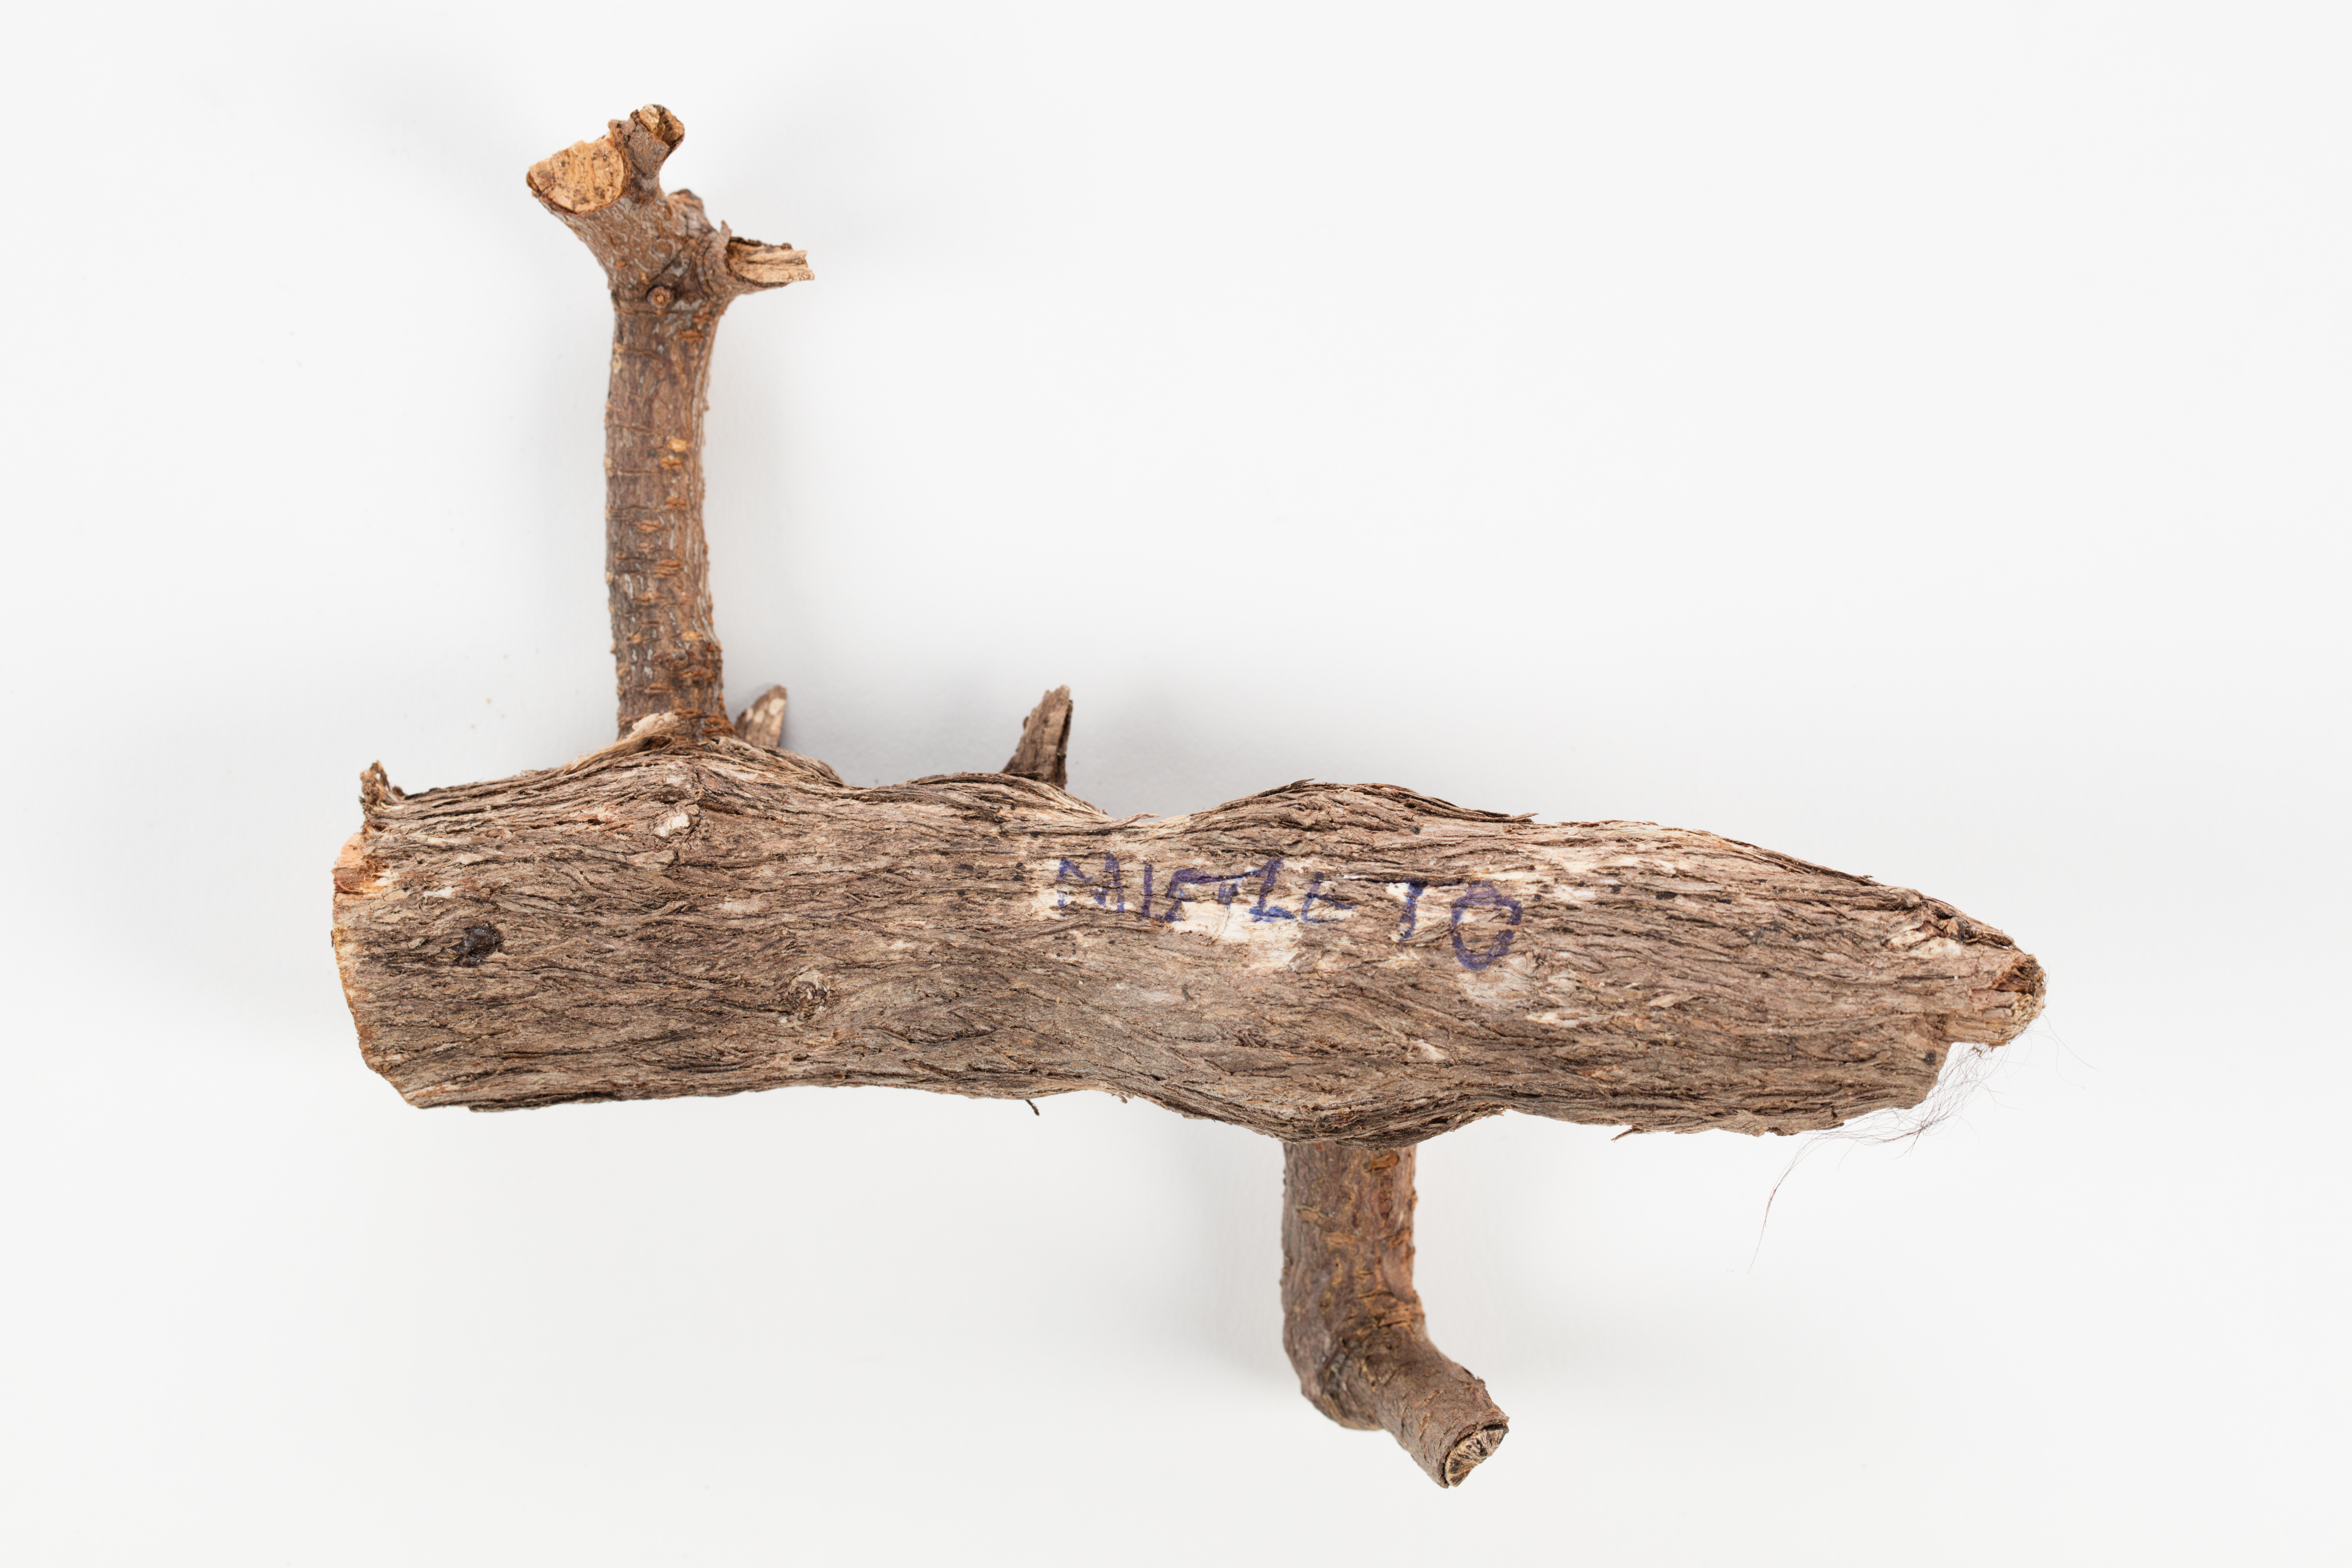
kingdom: Plantae
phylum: Tracheophyta
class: Magnoliopsida
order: Santalales
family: Loranthaceae
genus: Ileostylus
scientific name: Ileostylus micranthus
